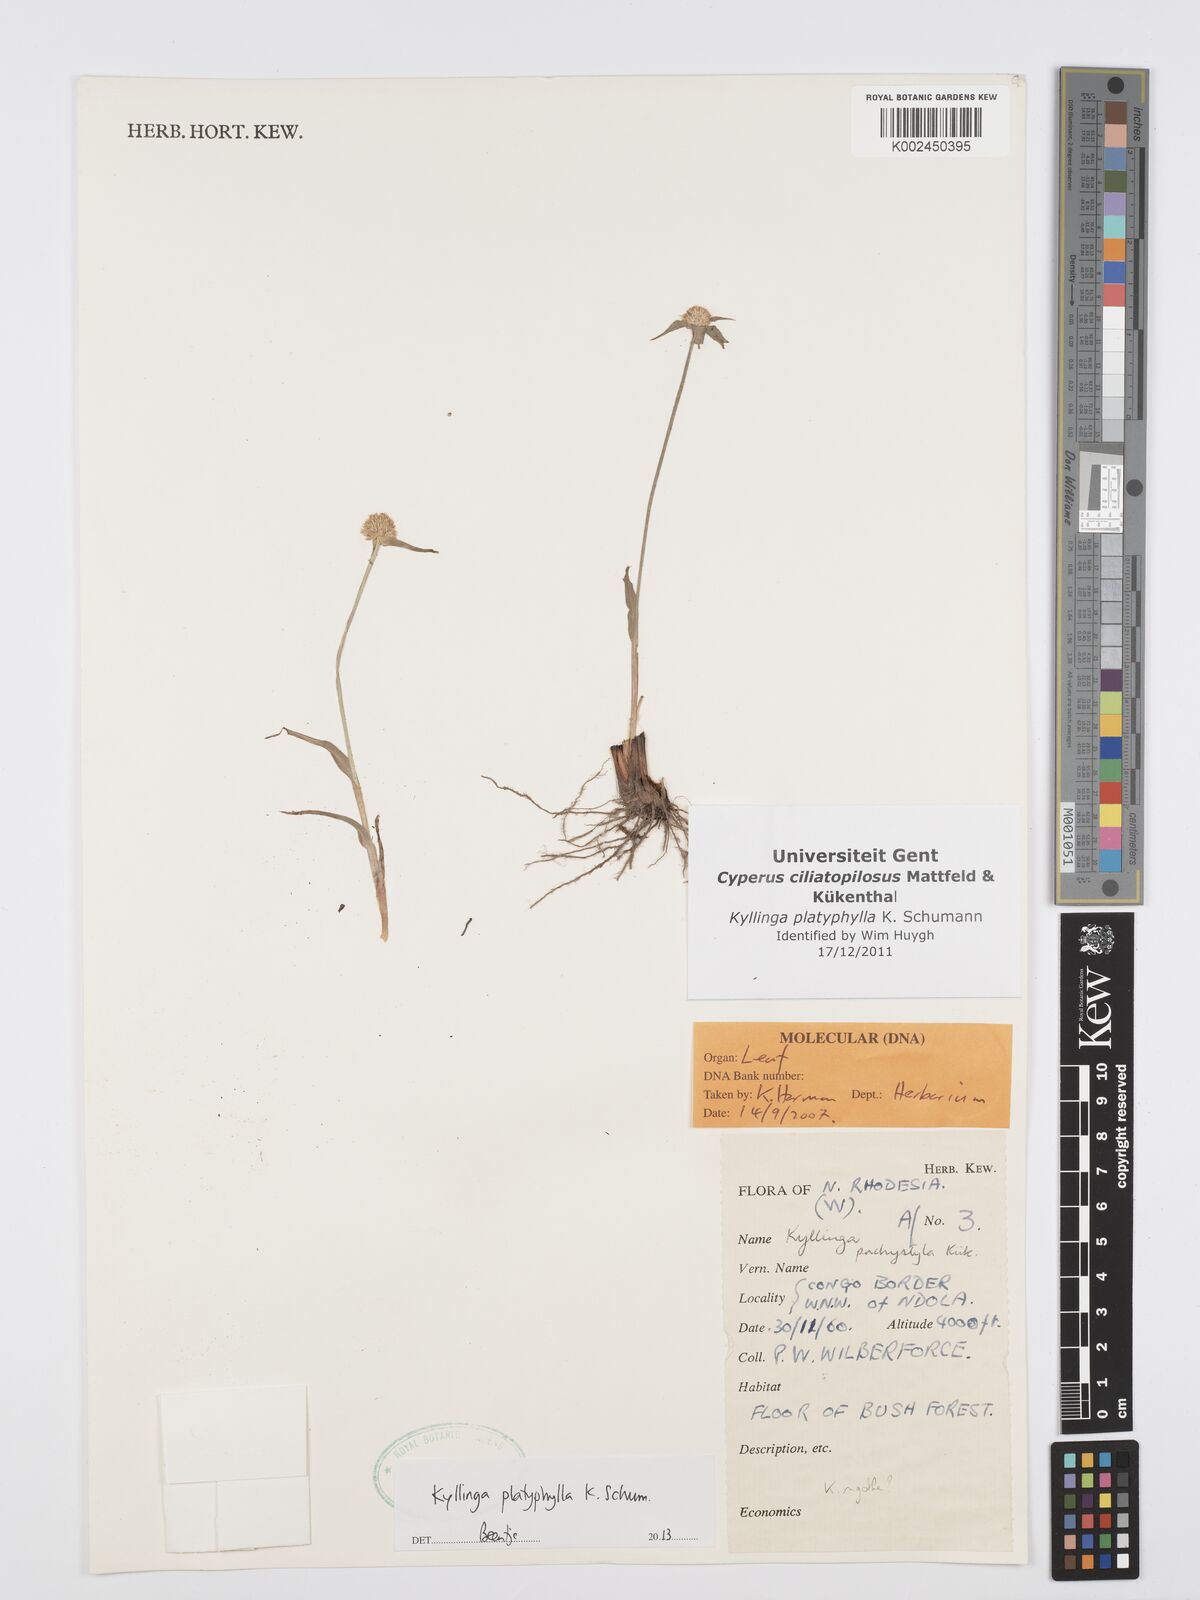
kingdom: Plantae
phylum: Tracheophyta
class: Liliopsida
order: Poales
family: Cyperaceae
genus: Cyperus
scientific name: Cyperus
